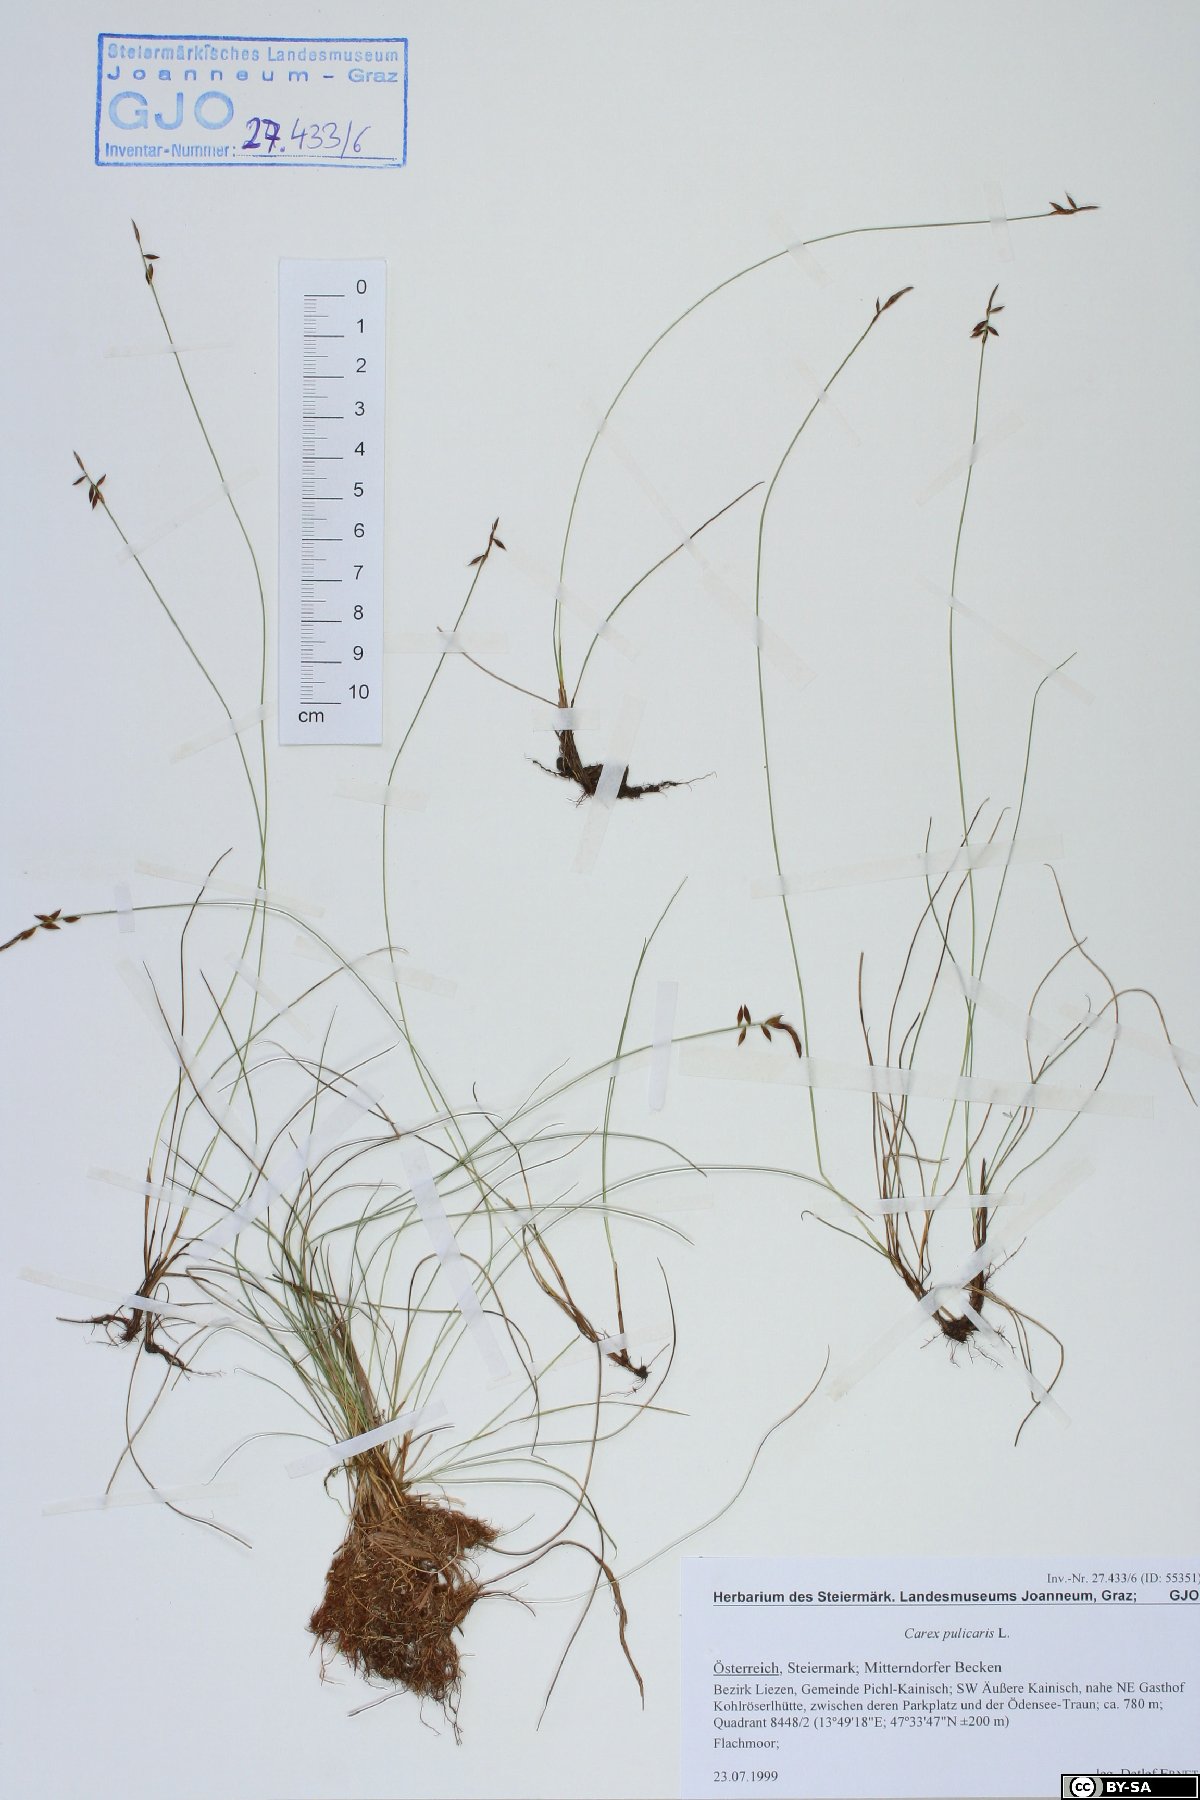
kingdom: Plantae
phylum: Tracheophyta
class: Liliopsida
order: Poales
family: Cyperaceae
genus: Carex
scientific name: Carex pulicaris
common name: Flea sedge
